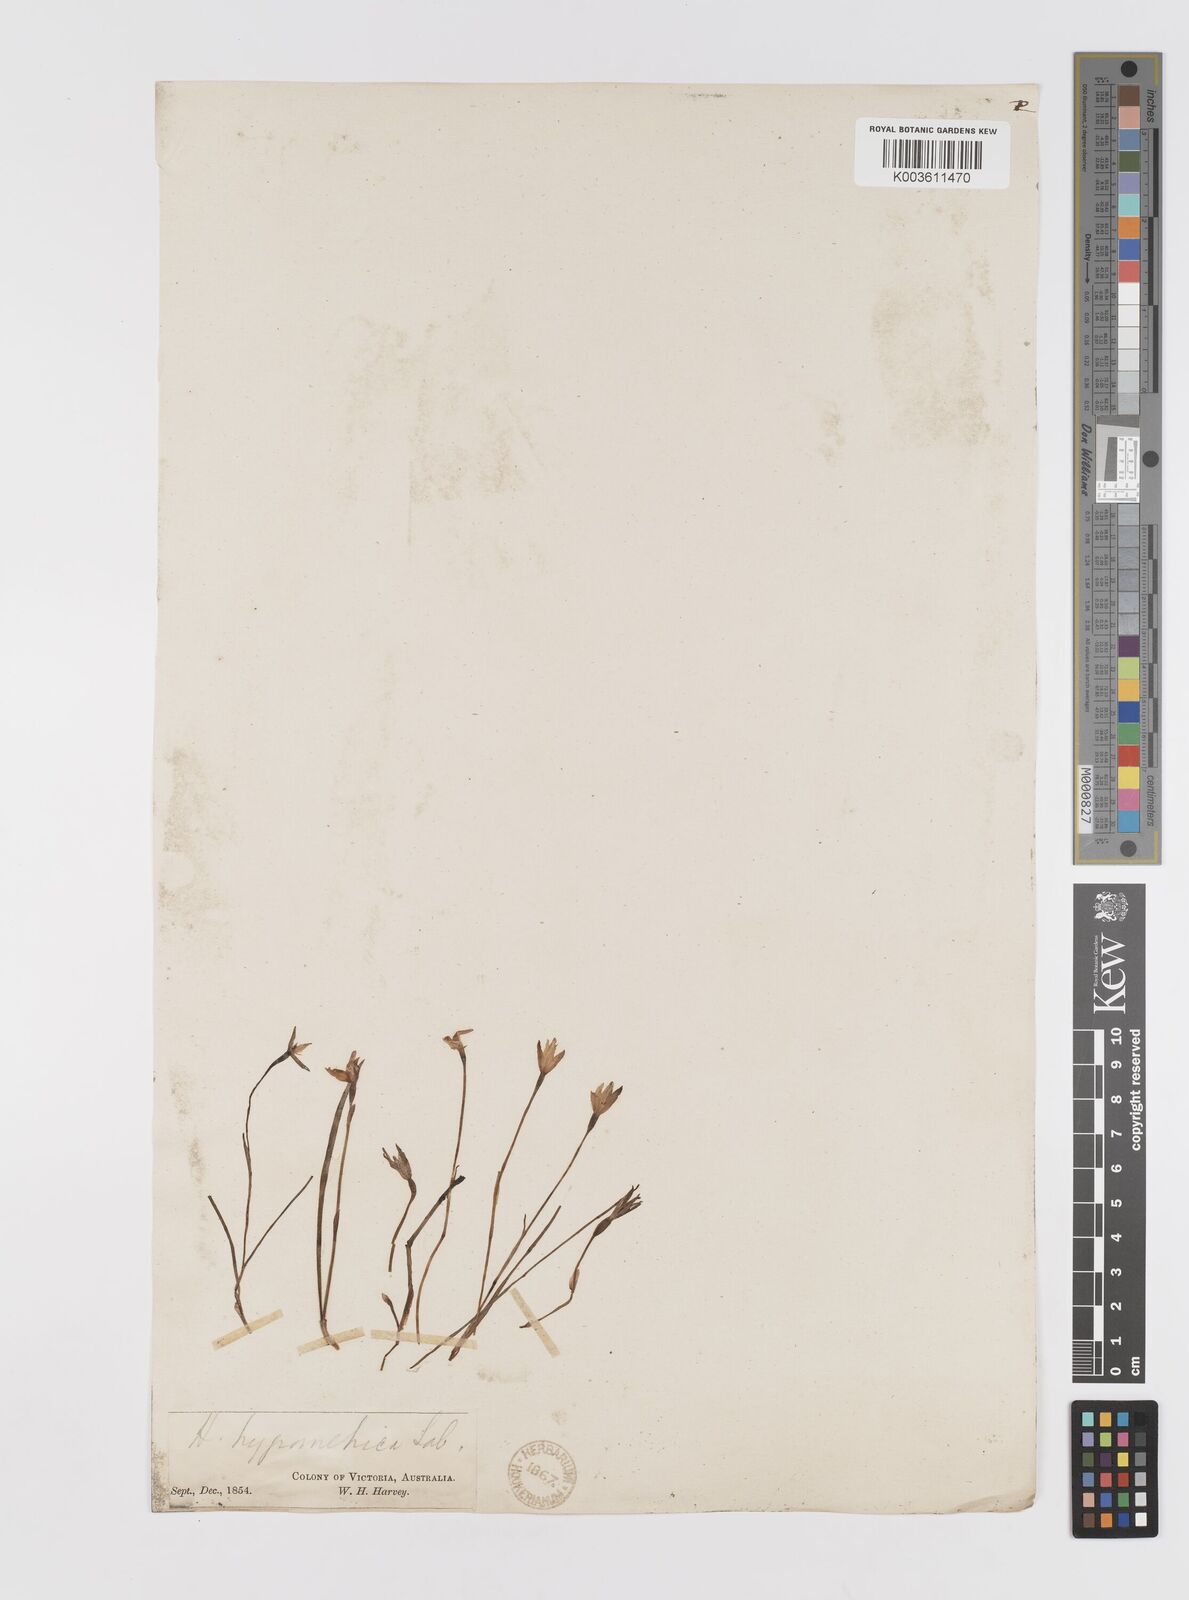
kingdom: Plantae
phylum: Tracheophyta
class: Liliopsida
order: Asparagales
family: Hypoxidaceae
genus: Hypoxis
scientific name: Hypoxis hygrometrica
